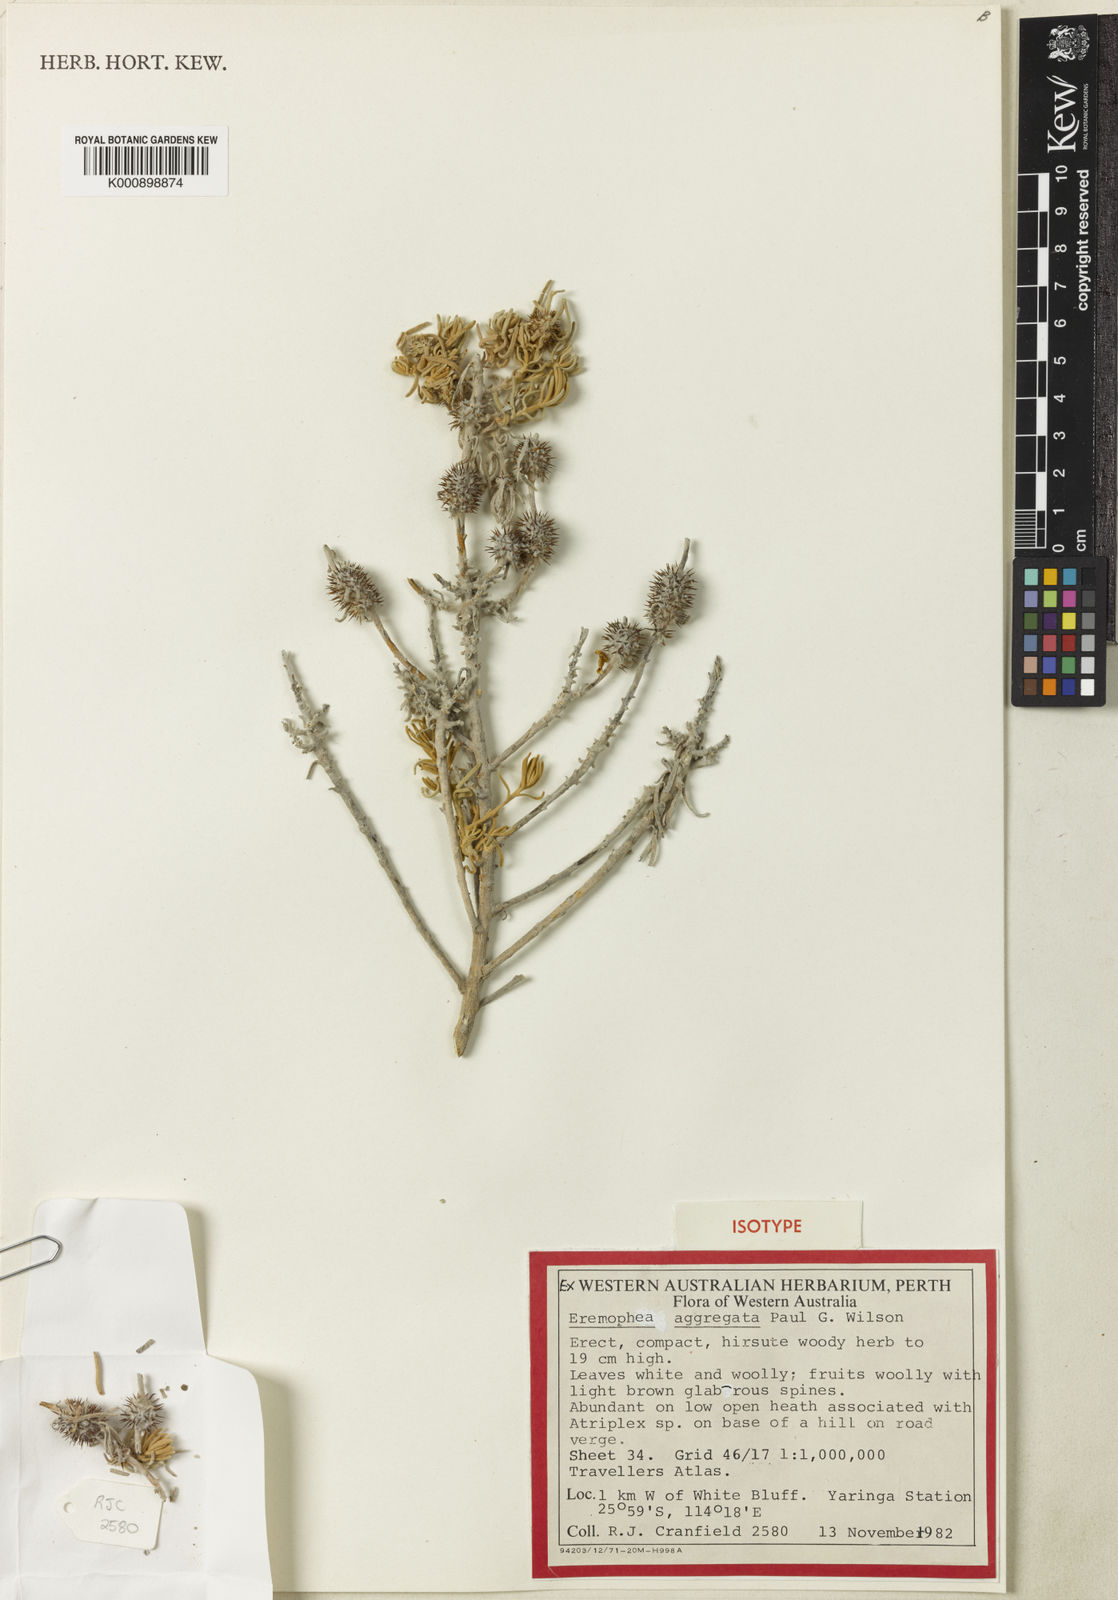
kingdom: Plantae
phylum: Tracheophyta
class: Magnoliopsida
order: Caryophyllales
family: Amaranthaceae
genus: Sclerolaena
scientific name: Sclerolaena
